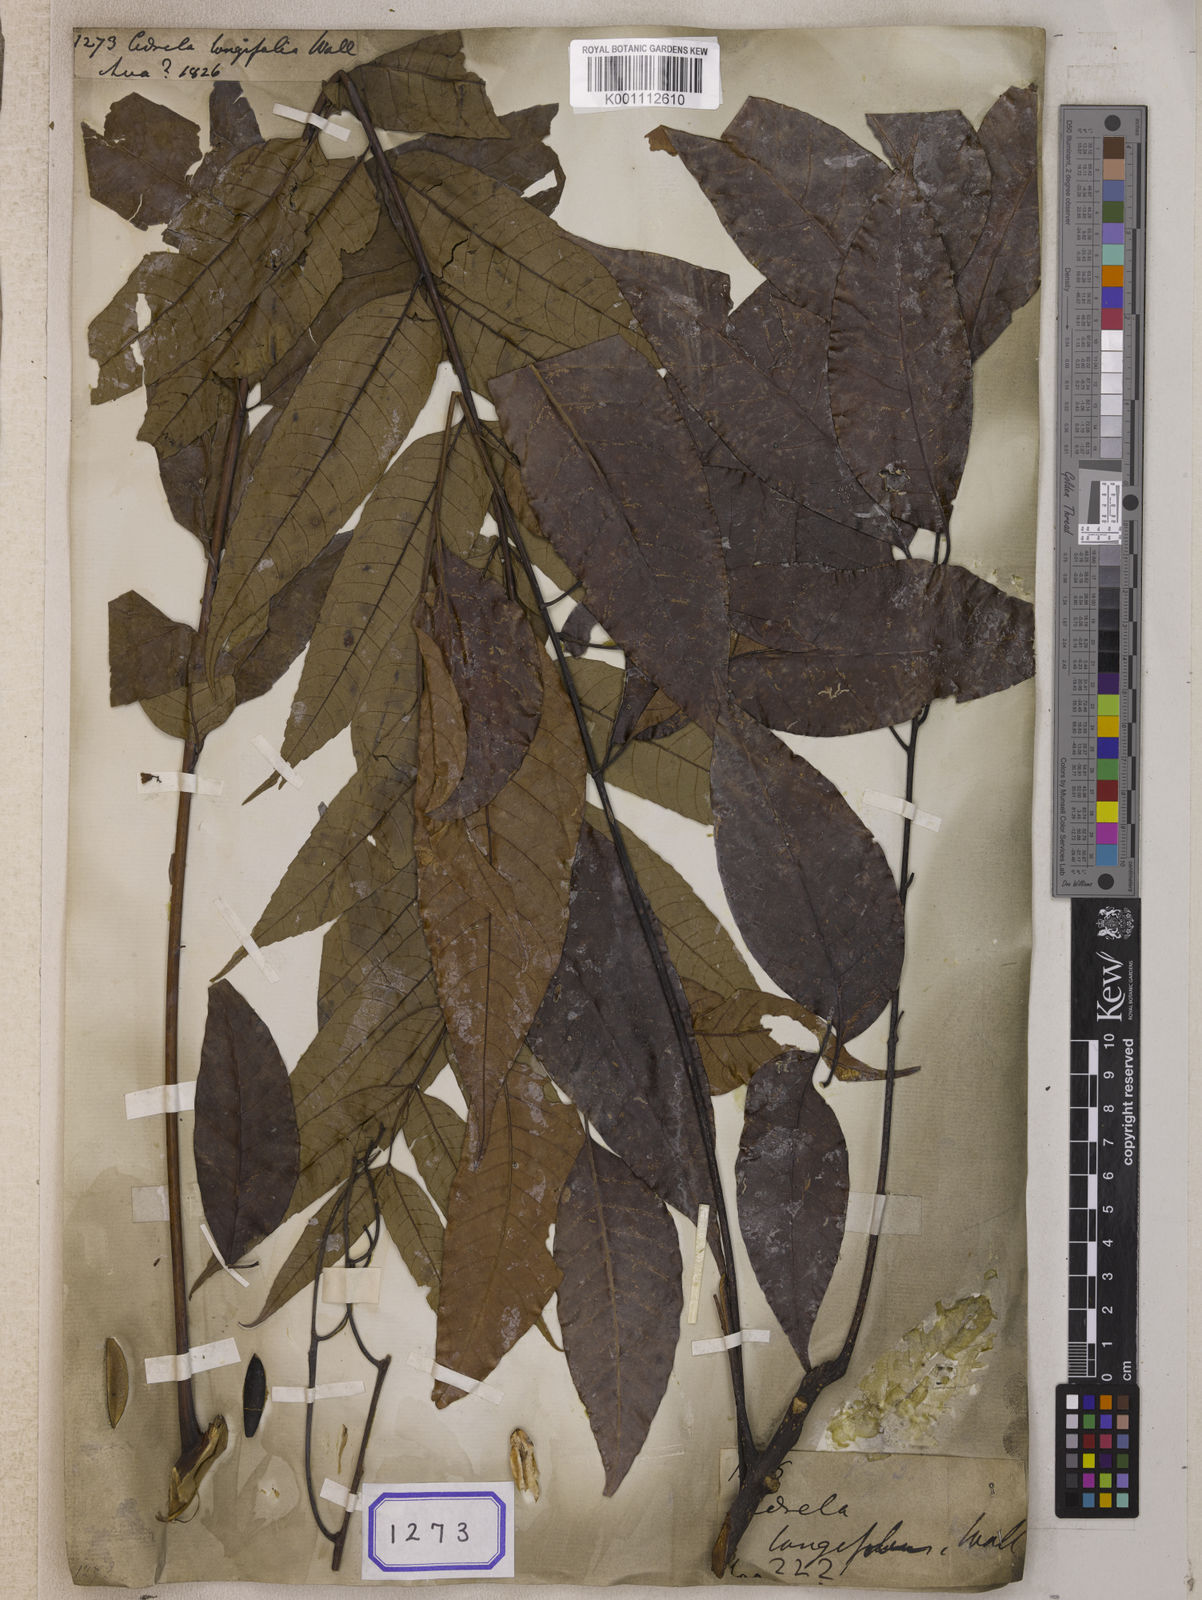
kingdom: Plantae
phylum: Tracheophyta
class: Magnoliopsida
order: Sapindales
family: Meliaceae
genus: Cedrela
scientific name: Cedrela
